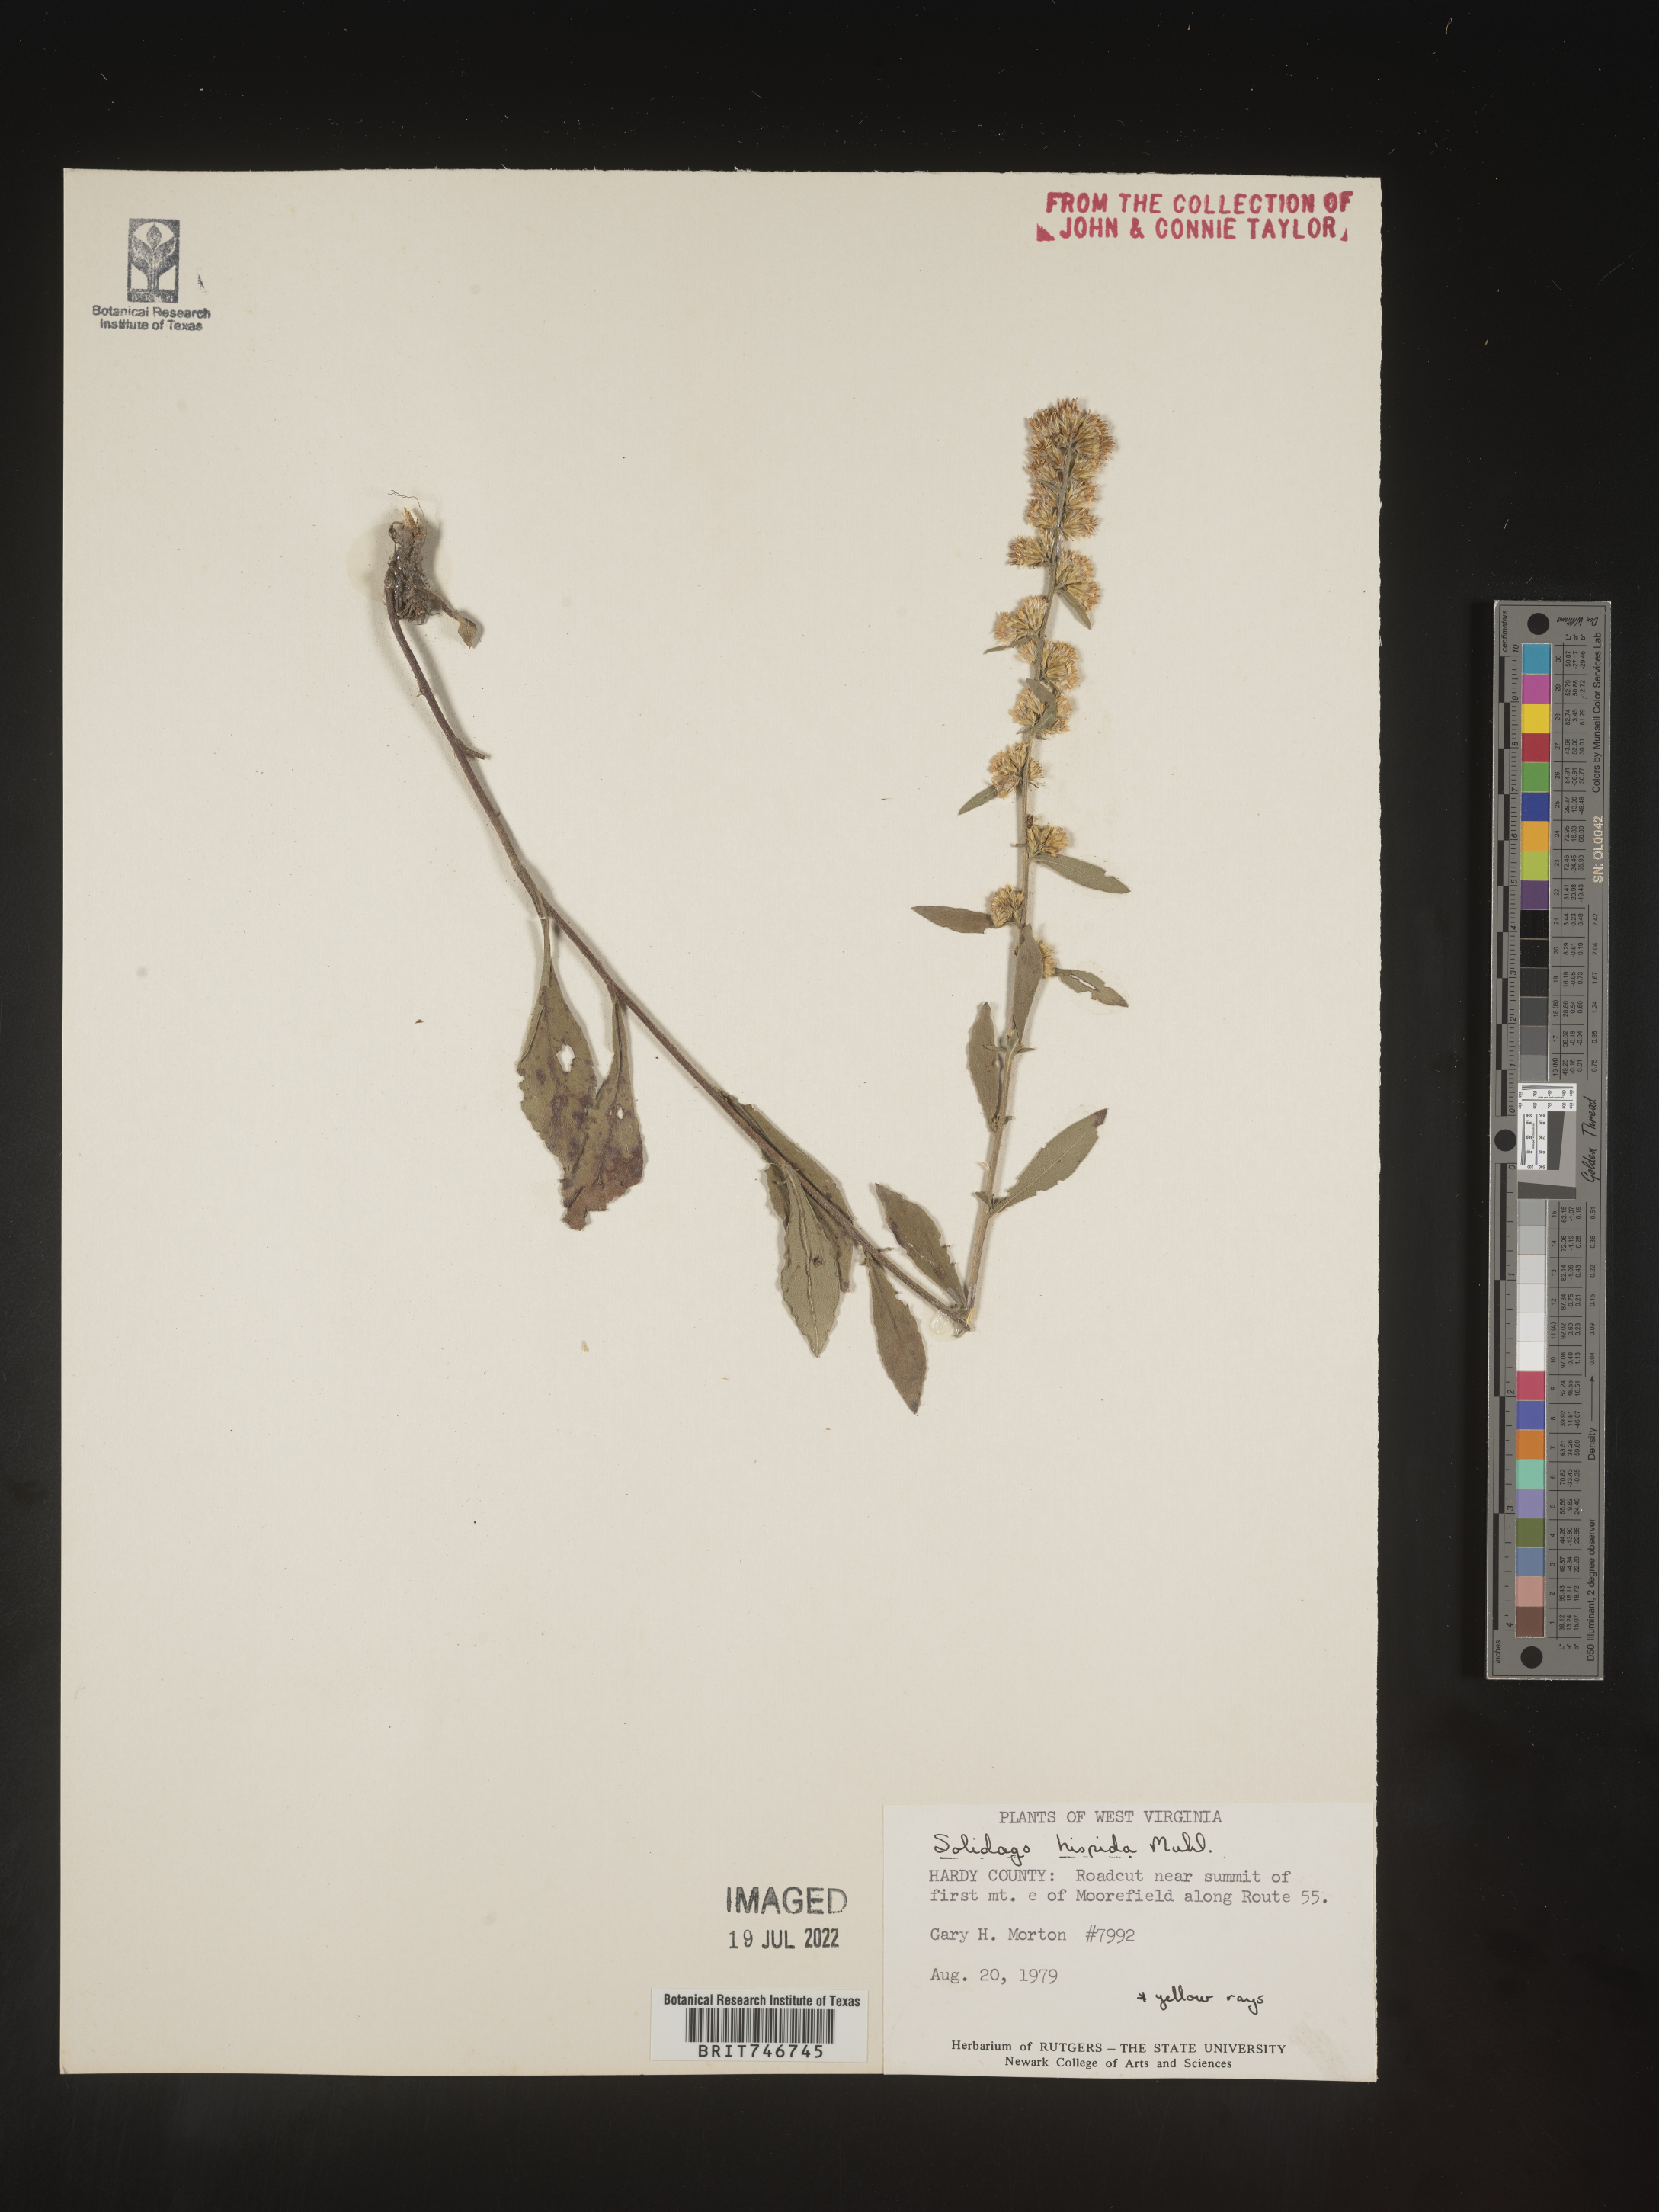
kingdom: Plantae
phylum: Tracheophyta
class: Magnoliopsida
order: Asterales
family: Asteraceae
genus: Solidago
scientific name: Solidago hispida
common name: Hairy goldenrod
